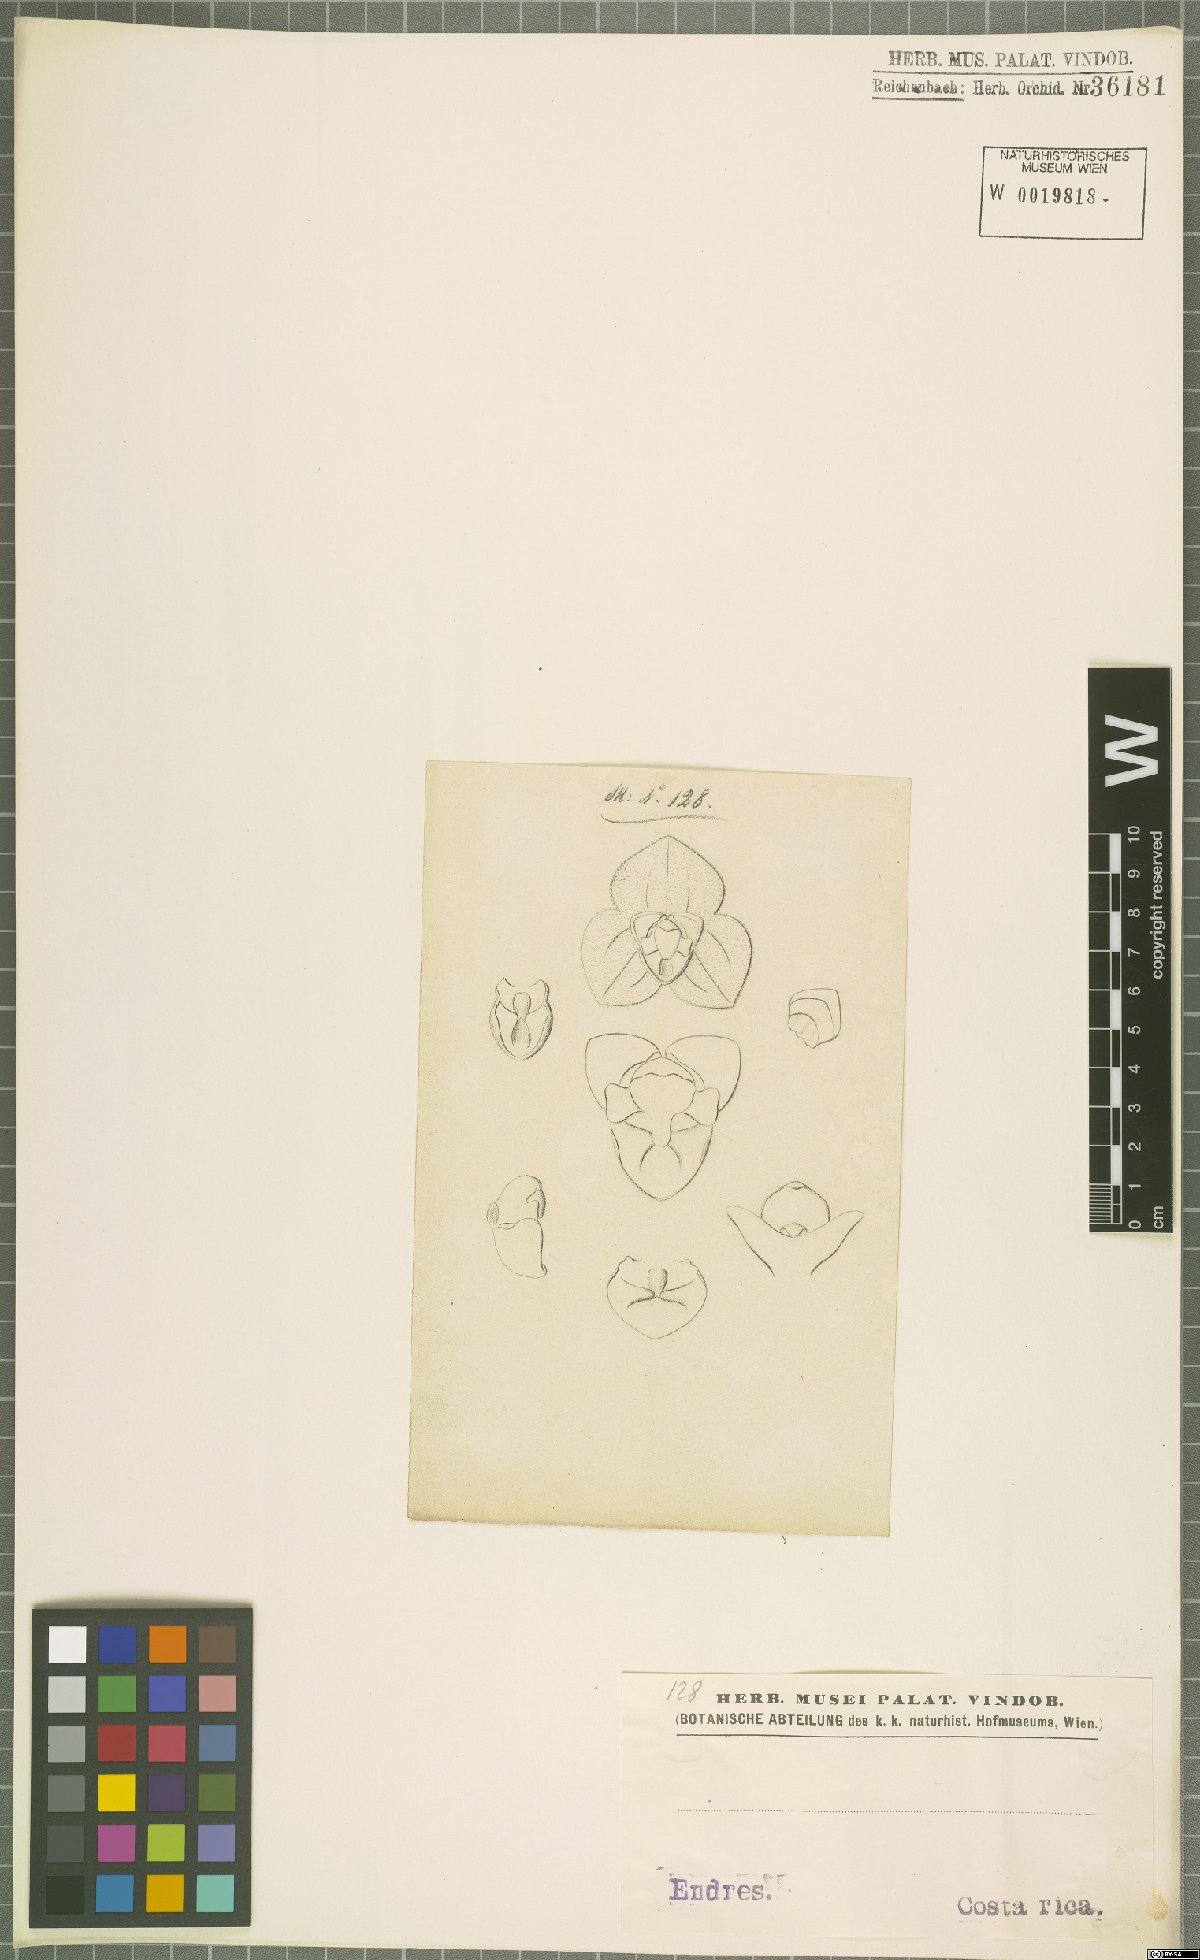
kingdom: Plantae
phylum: Tracheophyta
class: Liliopsida
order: Asparagales
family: Orchidaceae
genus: Stelis
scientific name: Stelis
